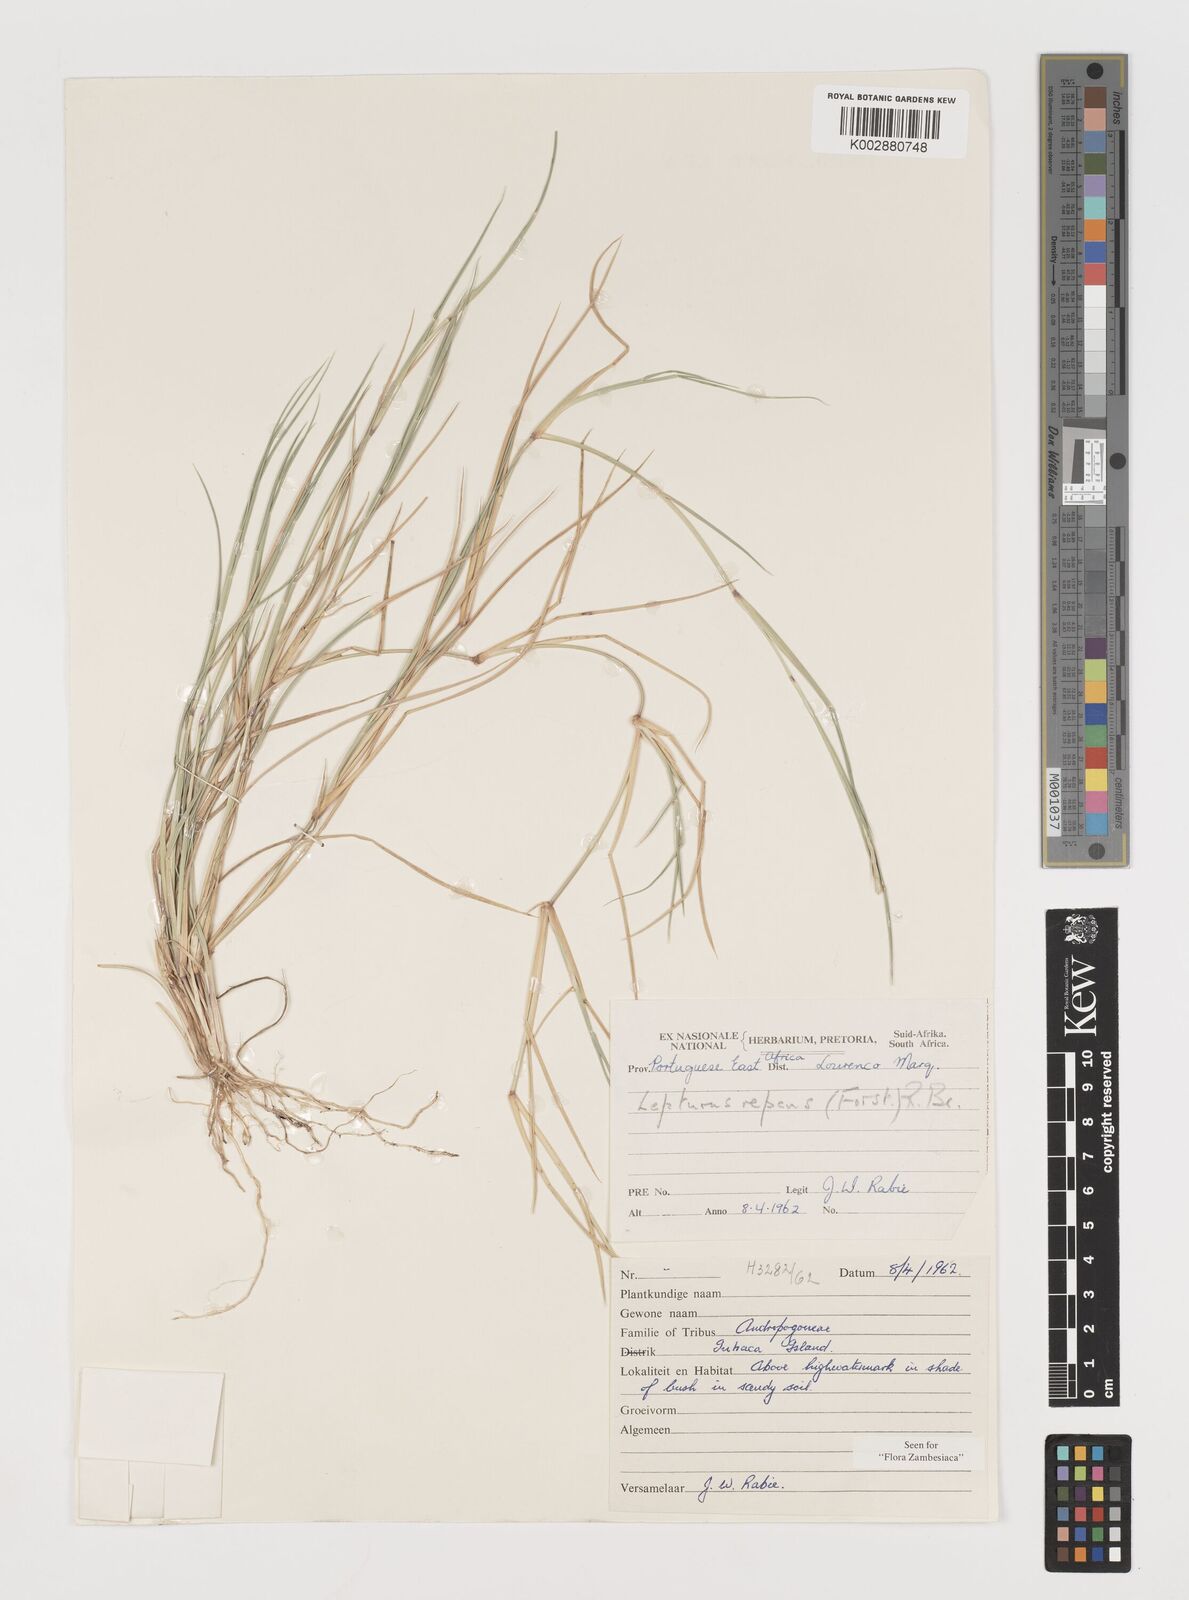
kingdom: Plantae
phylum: Tracheophyta
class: Liliopsida
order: Poales
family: Poaceae
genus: Lepturus
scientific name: Lepturus repens
